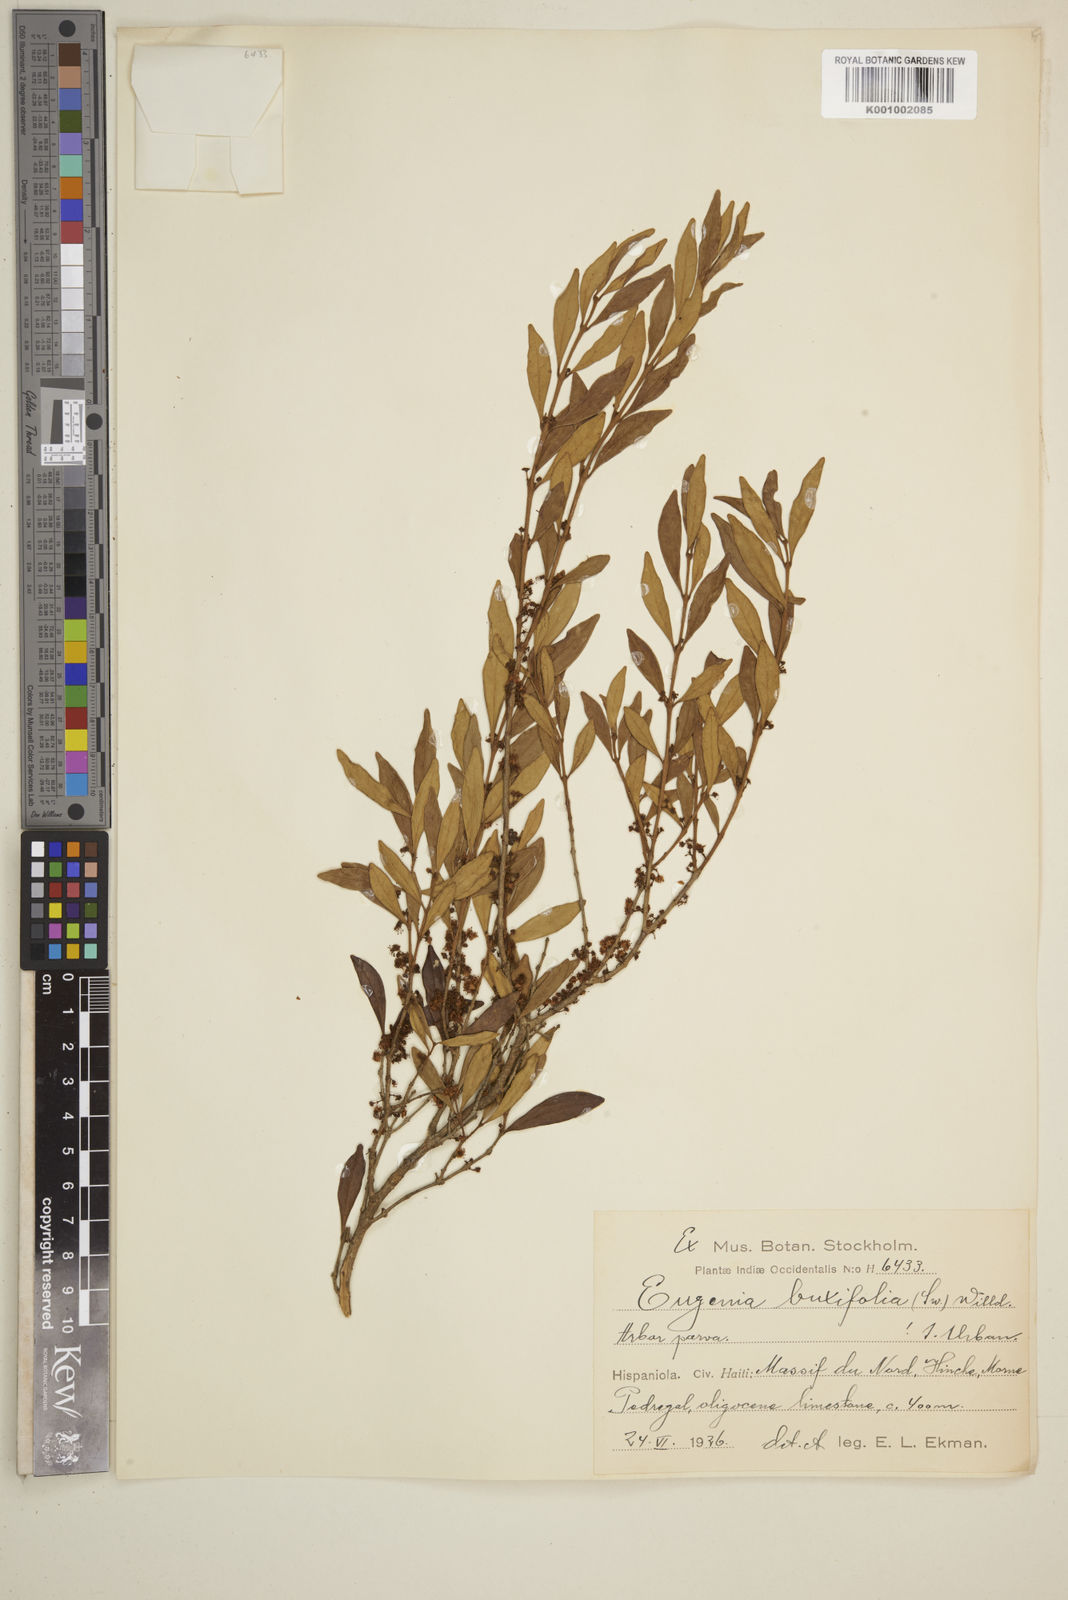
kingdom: Plantae
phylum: Tracheophyta
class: Magnoliopsida
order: Myrtales
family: Myrtaceae
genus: Eugenia
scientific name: Eugenia buxifolia
